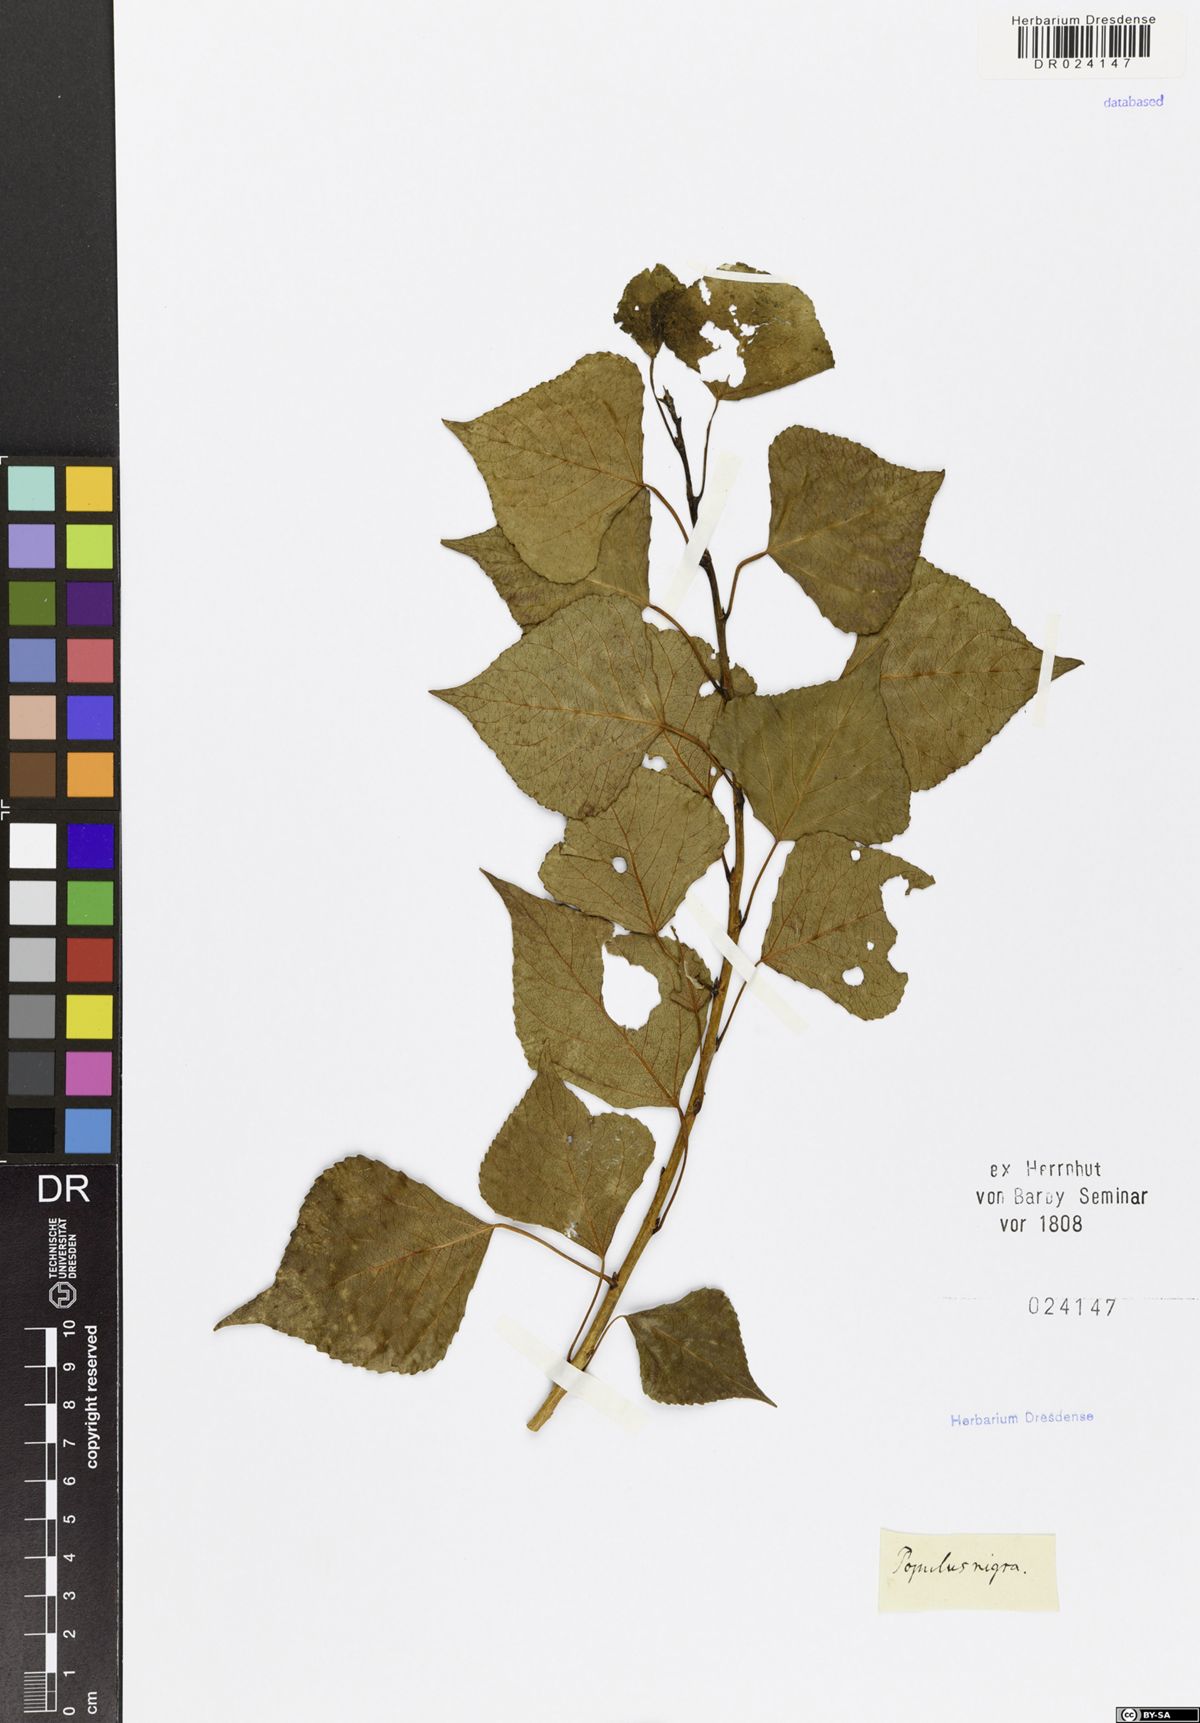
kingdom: Plantae
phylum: Tracheophyta
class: Magnoliopsida
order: Malpighiales
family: Salicaceae
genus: Populus
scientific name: Populus nigra
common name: Black poplar
